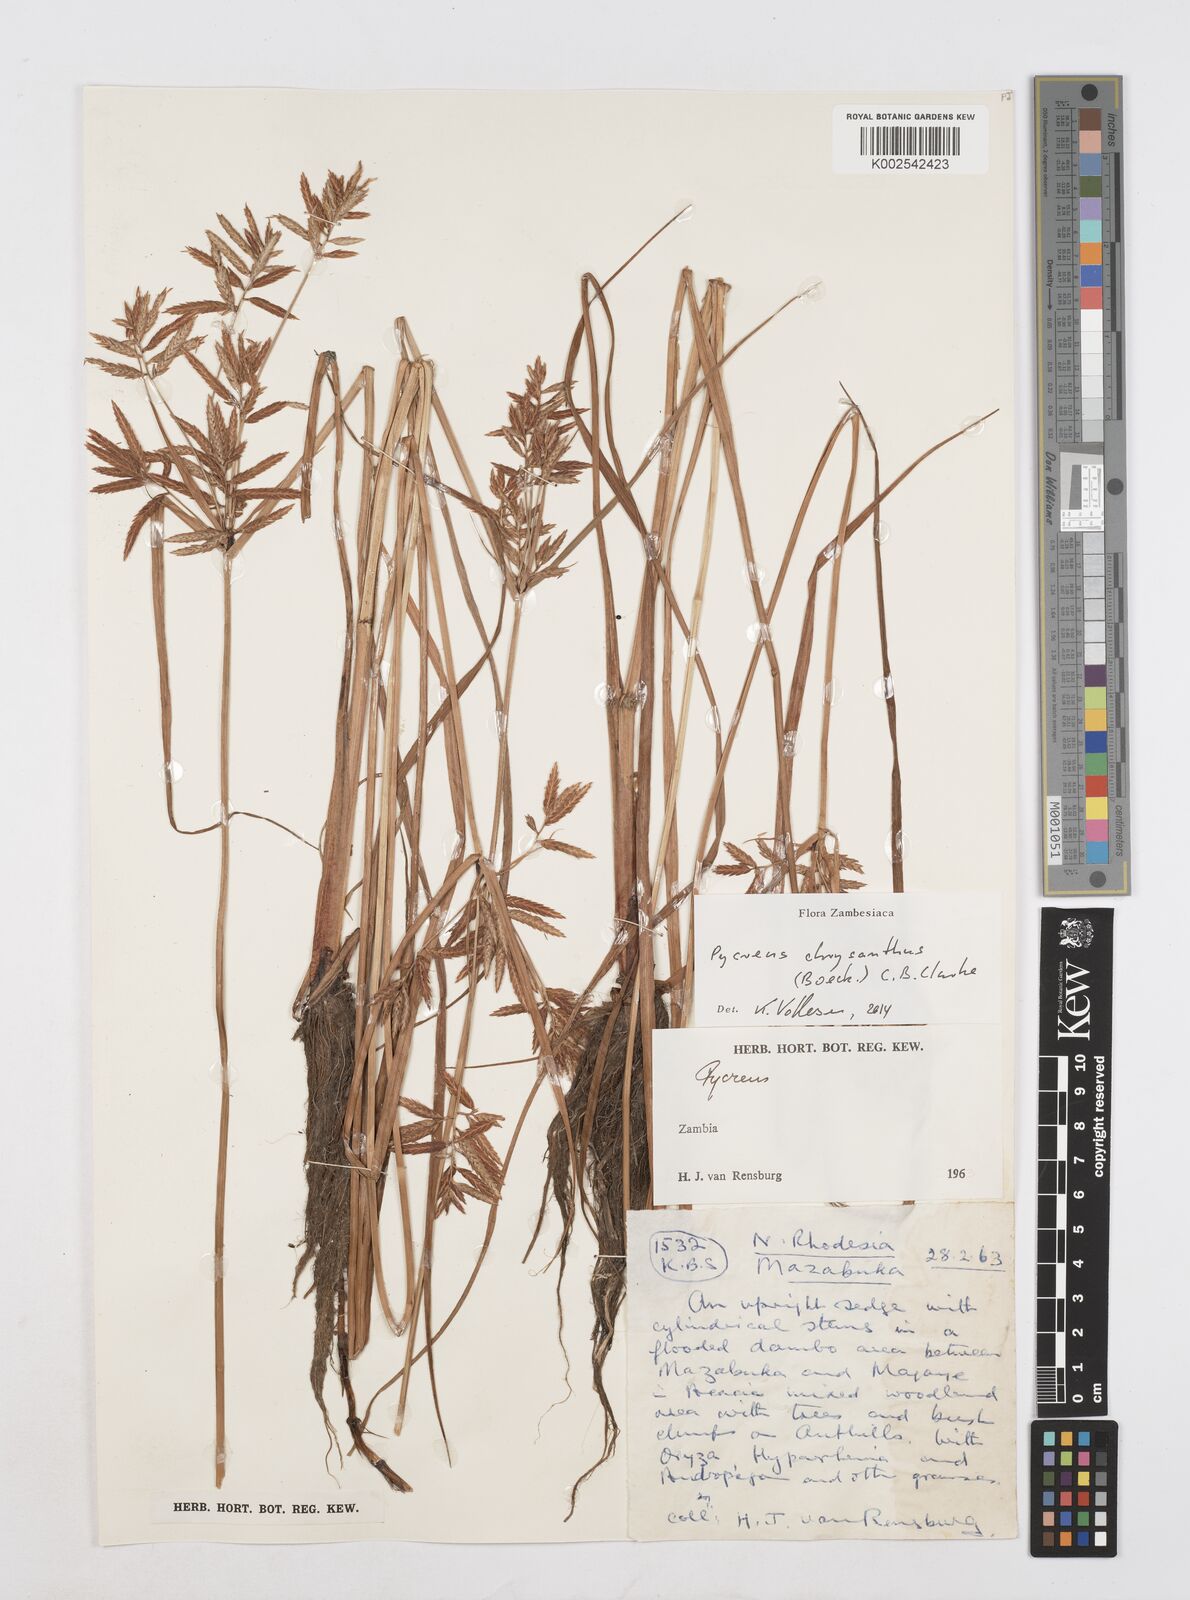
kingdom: Plantae
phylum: Tracheophyta
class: Liliopsida
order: Poales
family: Cyperaceae
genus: Cyperus
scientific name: Cyperus chrysanthus
